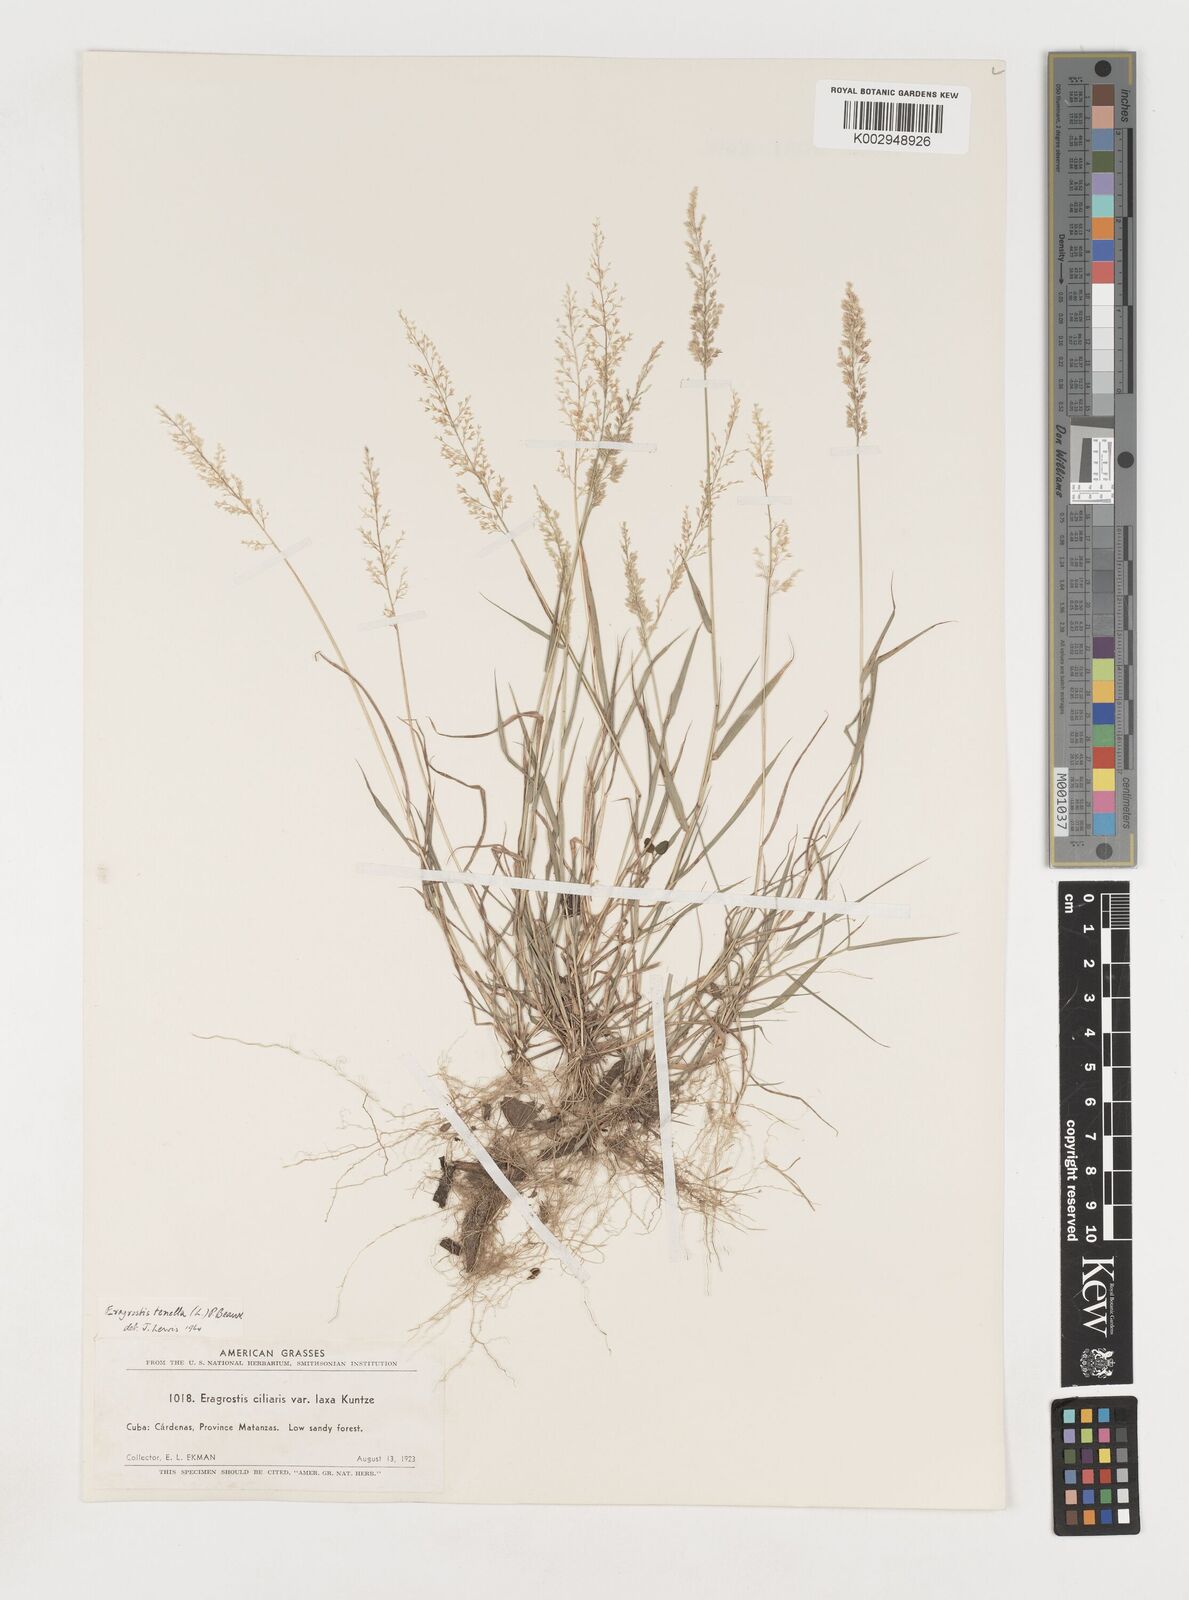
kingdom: Plantae
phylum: Tracheophyta
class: Liliopsida
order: Poales
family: Poaceae
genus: Eragrostis
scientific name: Eragrostis tenella
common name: Japanese lovegrass
